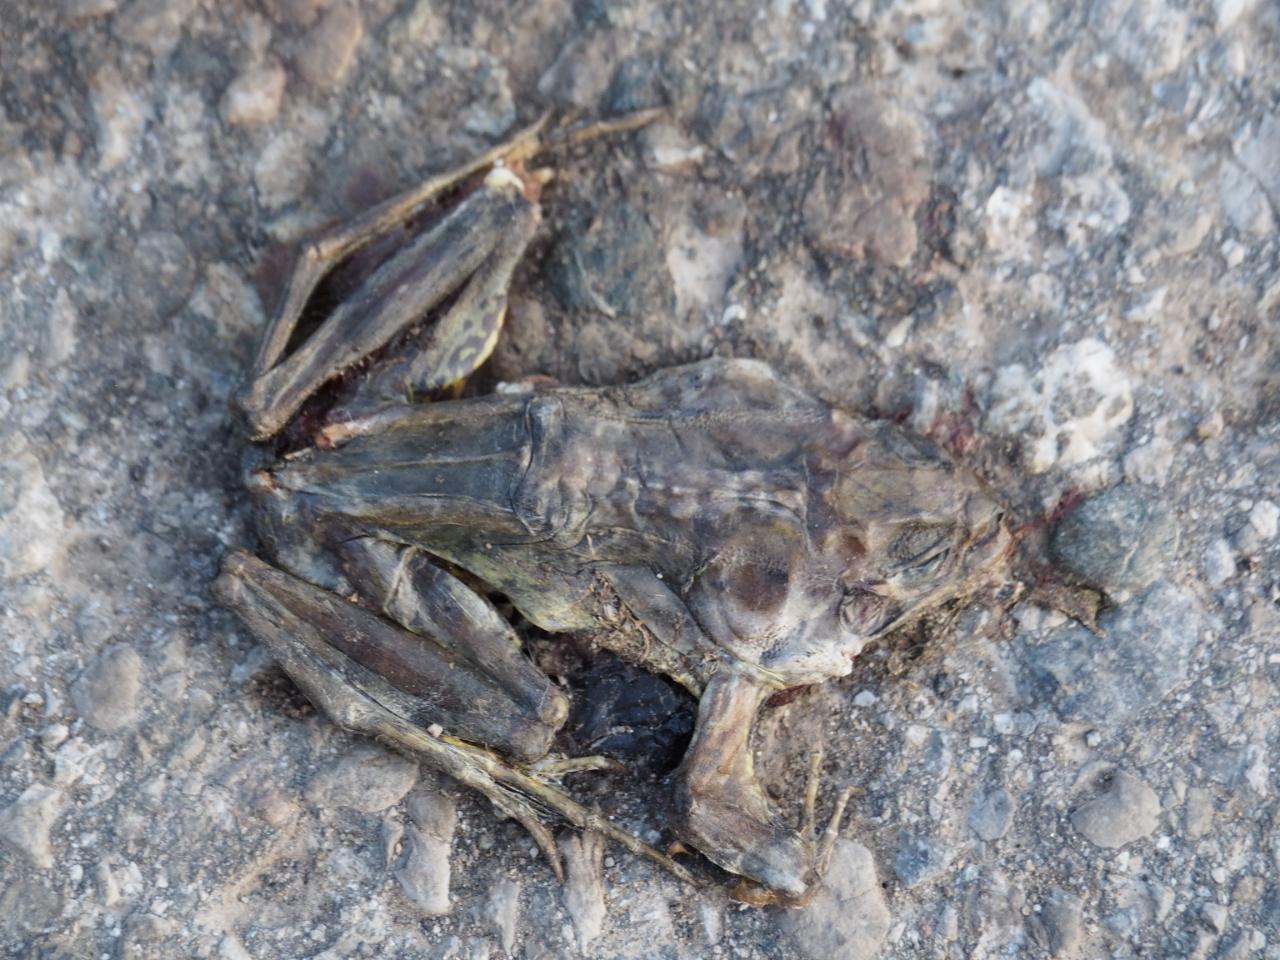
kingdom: Animalia
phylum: Chordata
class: Amphibia
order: Anura
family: Ranidae
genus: Rana
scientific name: Rana temporaria
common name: Common frog
